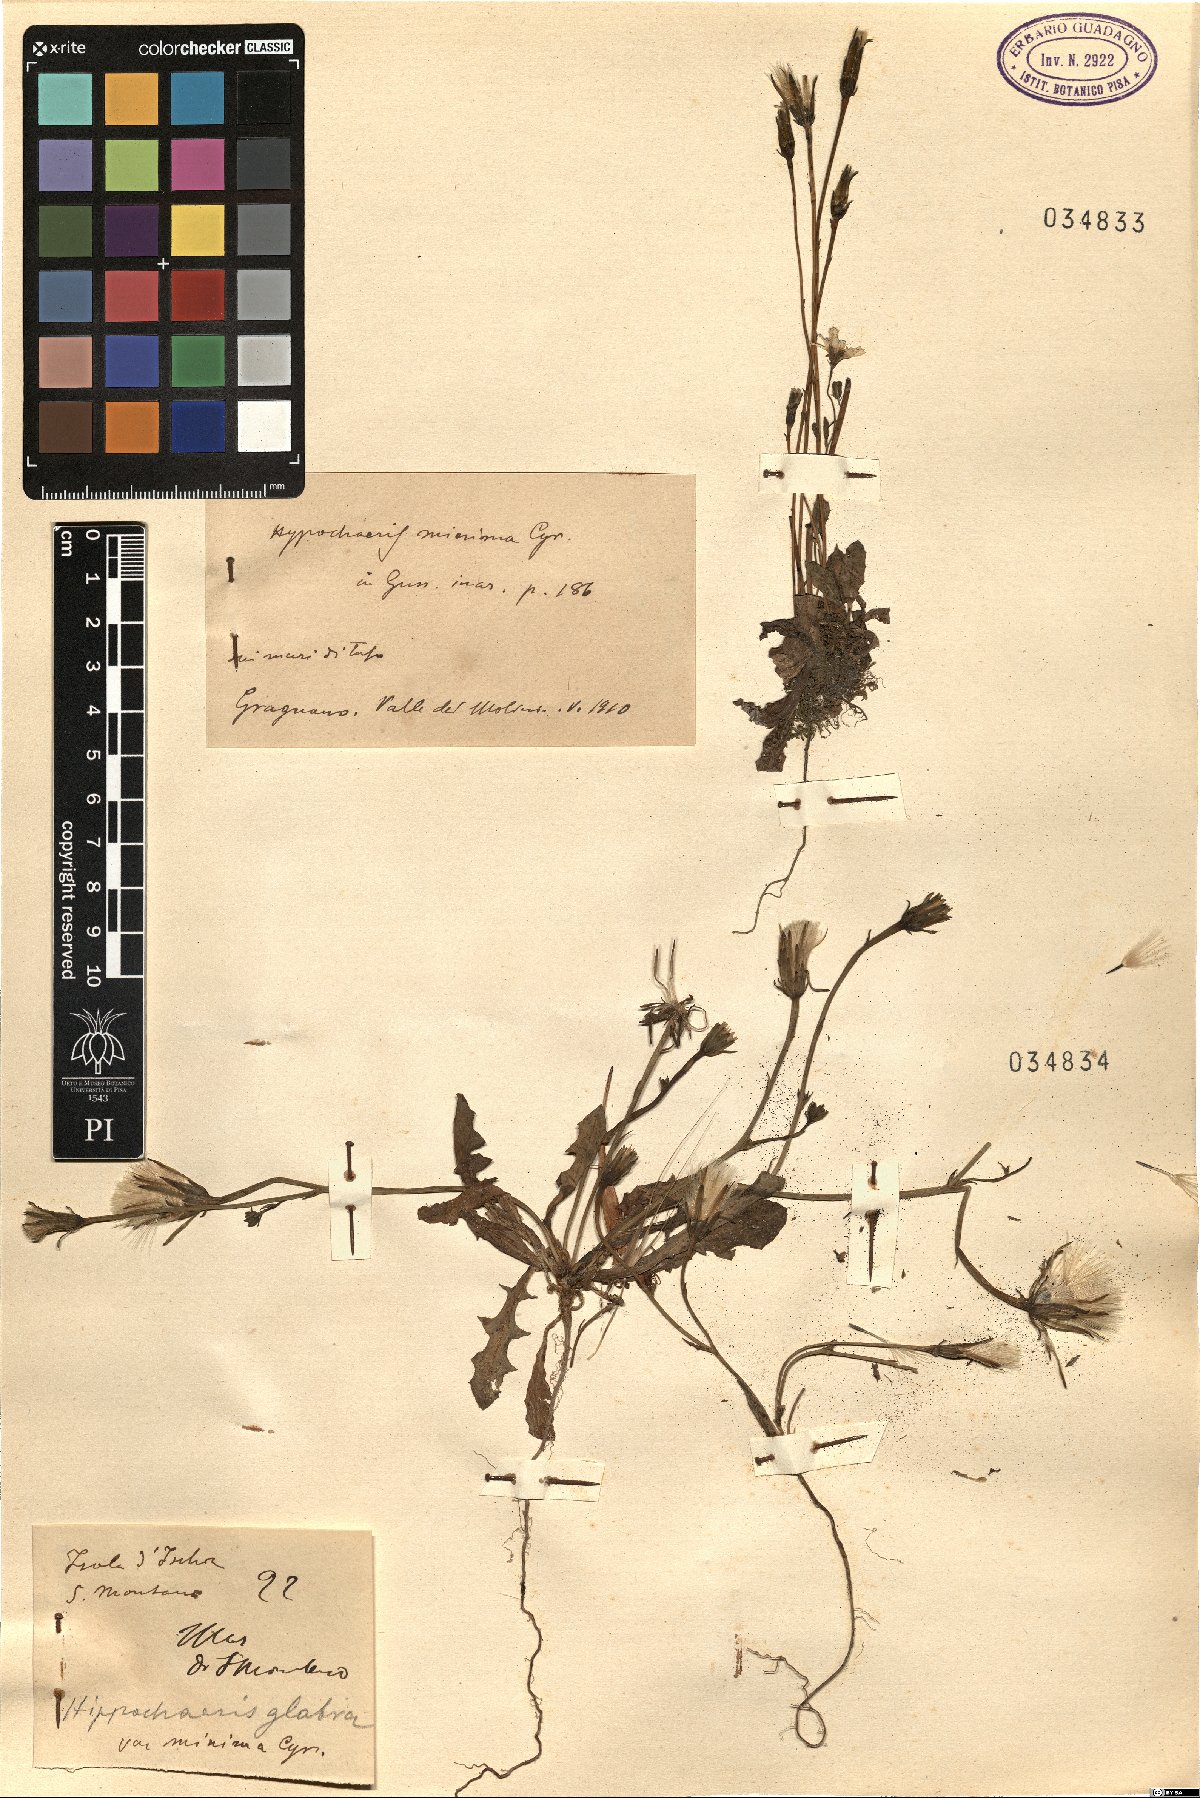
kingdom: Plantae
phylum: Tracheophyta
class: Magnoliopsida
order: Asterales
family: Asteraceae
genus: Hypochaeris
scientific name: Hypochaeris glabra
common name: Smooth catsear
